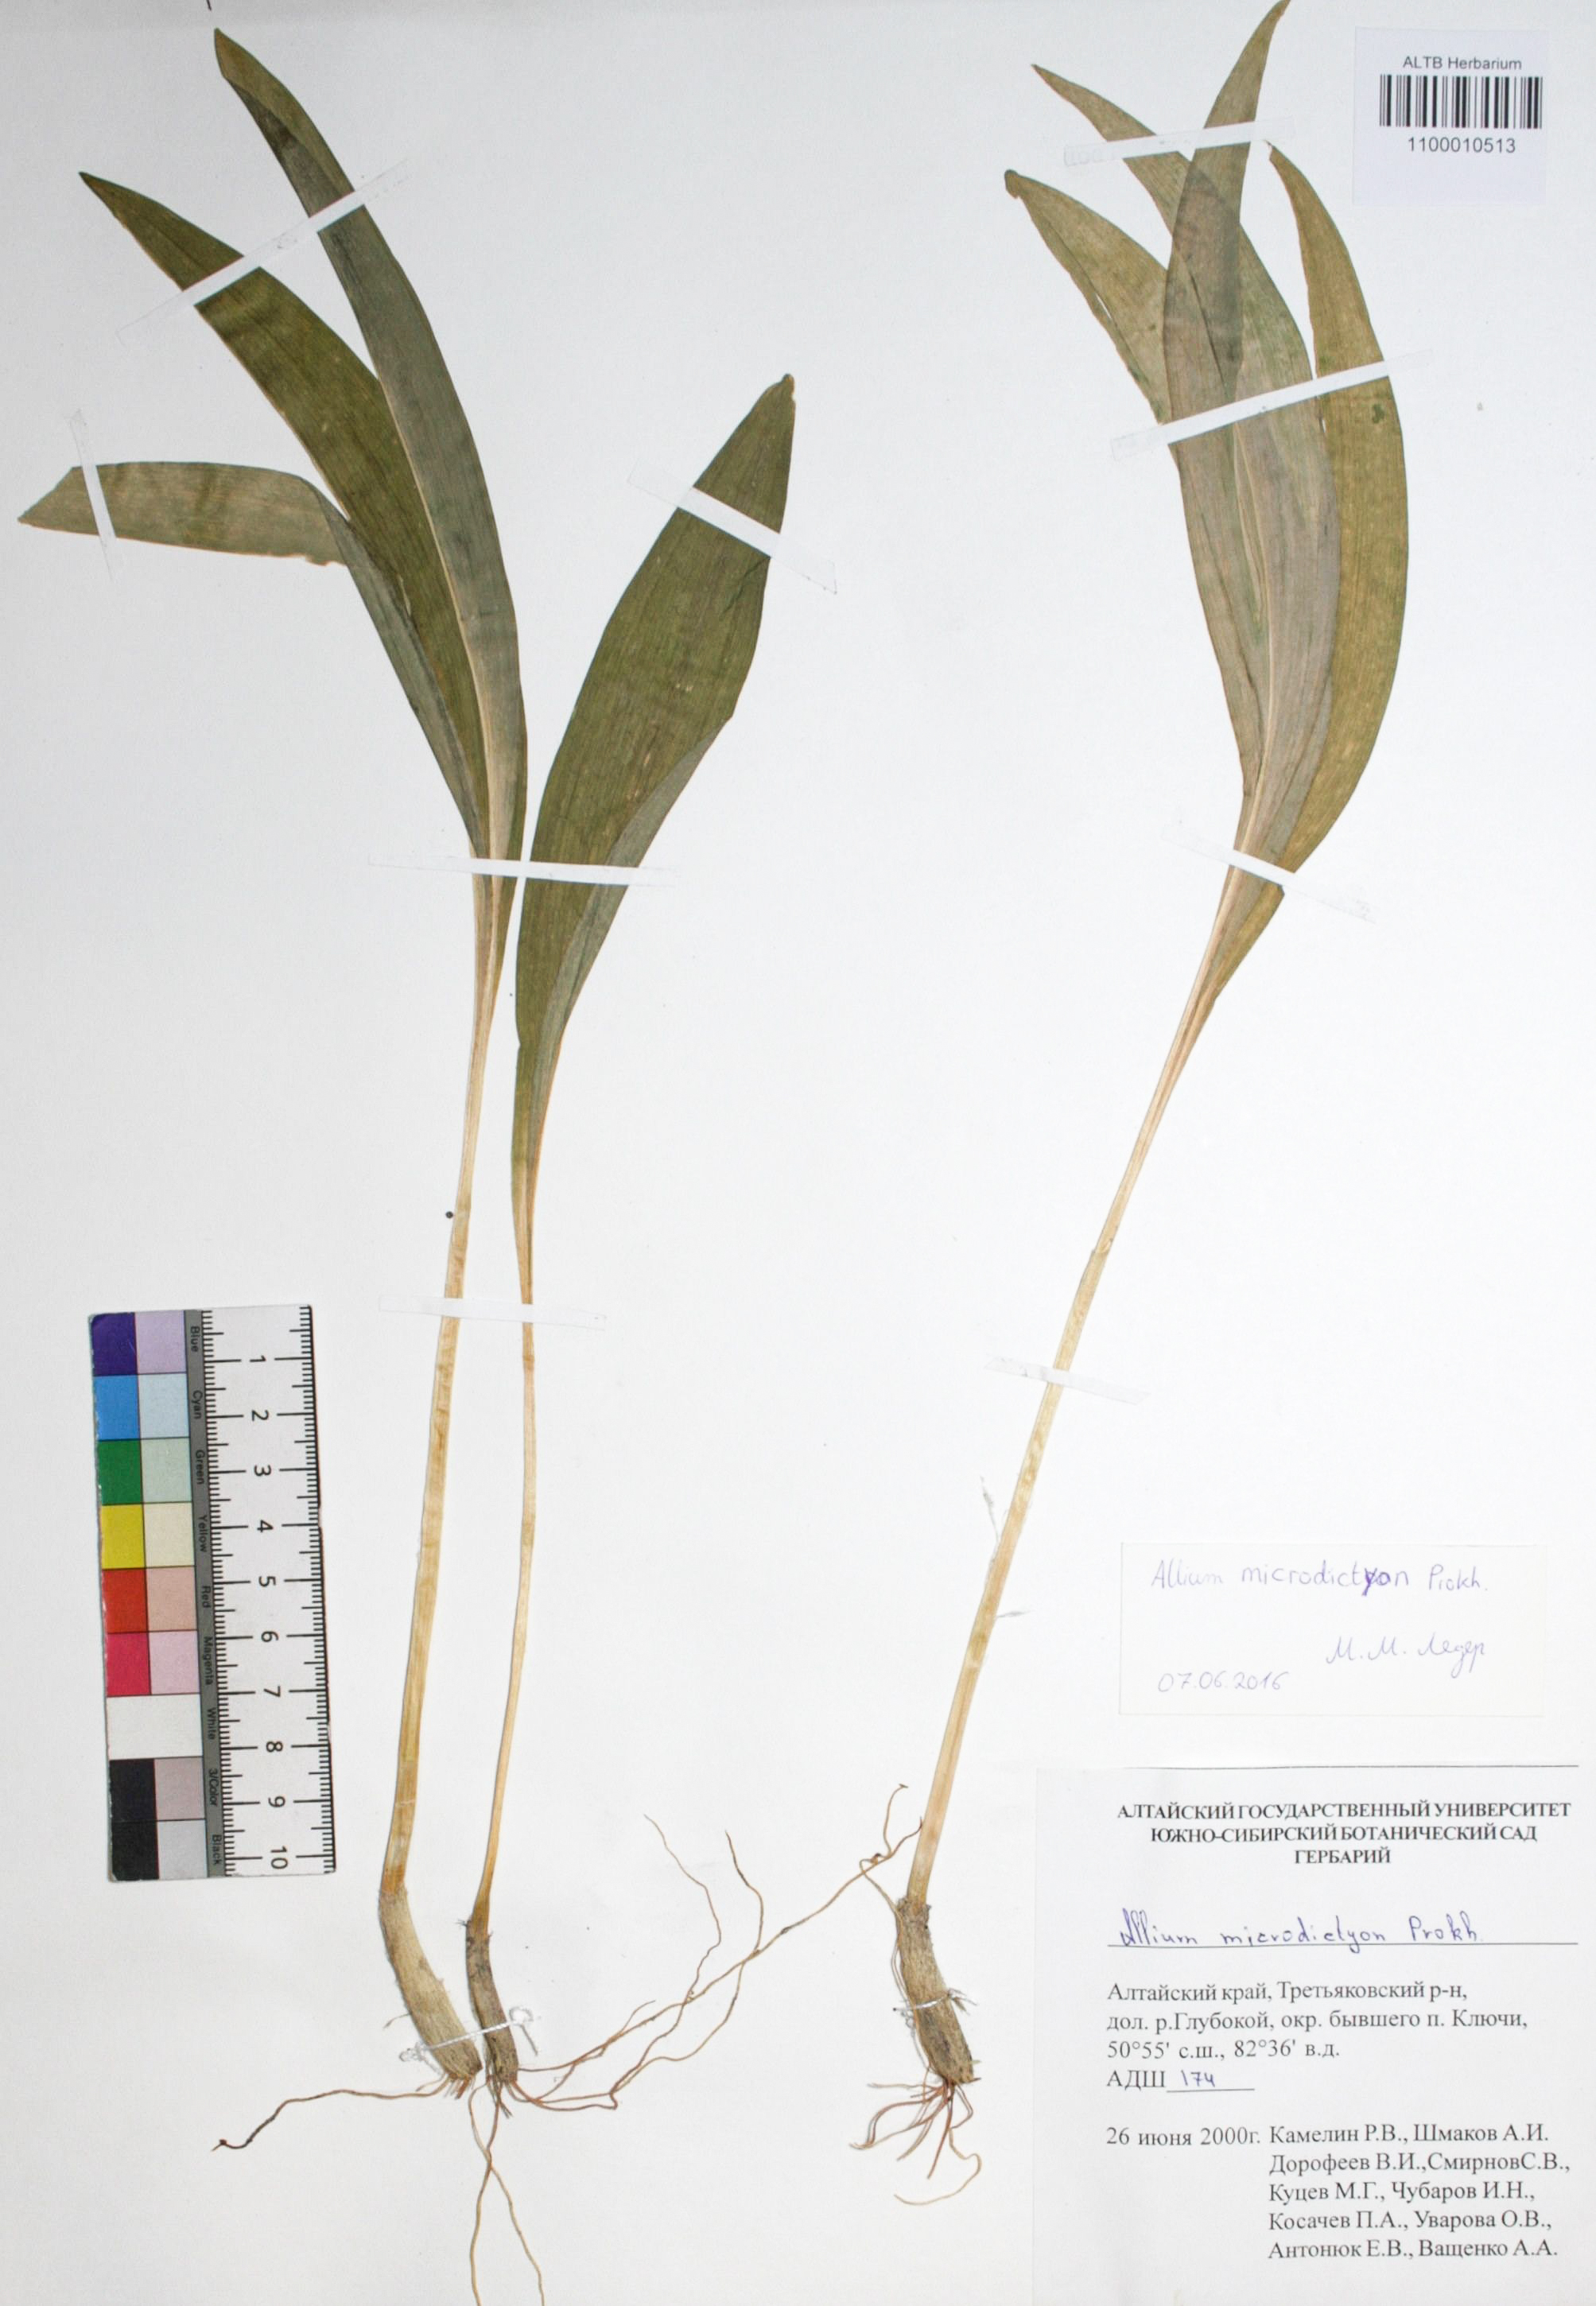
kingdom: Plantae
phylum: Tracheophyta
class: Liliopsida
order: Asparagales
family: Amaryllidaceae
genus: Allium
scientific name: Allium microdictyon
